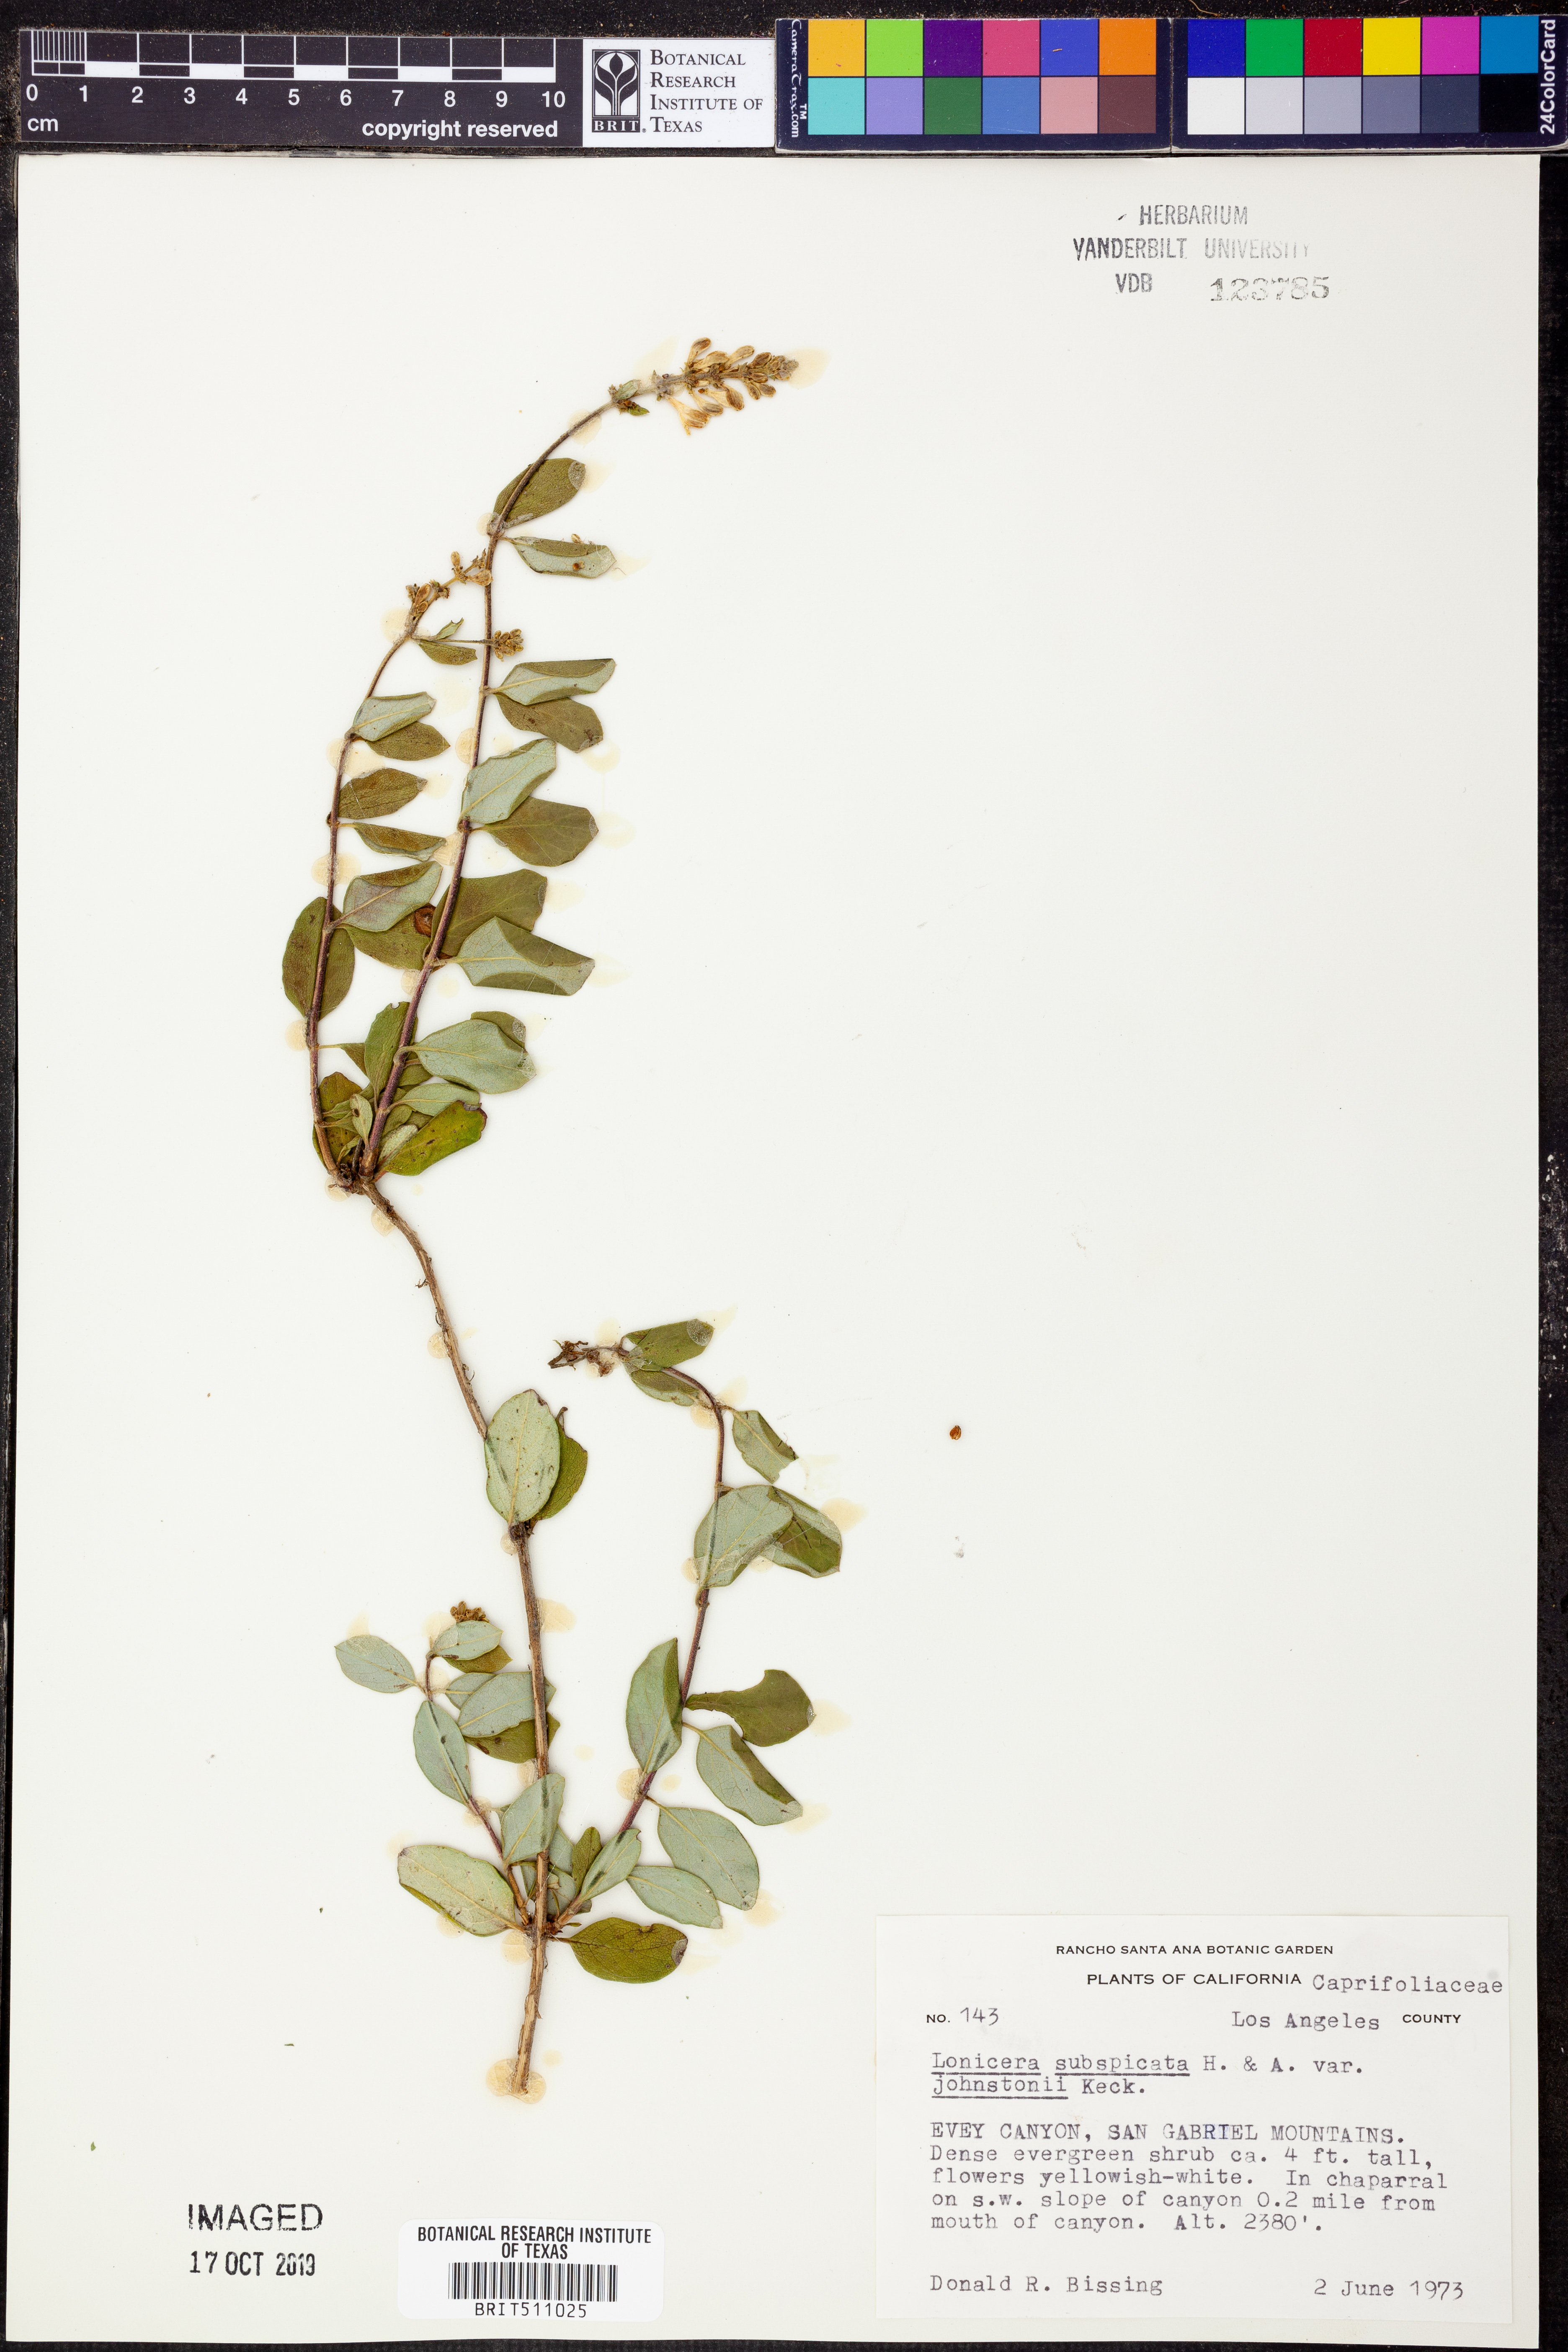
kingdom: Plantae
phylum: Tracheophyta
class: Magnoliopsida
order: Dipsacales
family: Caprifoliaceae
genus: Lonicera
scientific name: Lonicera subspicata
